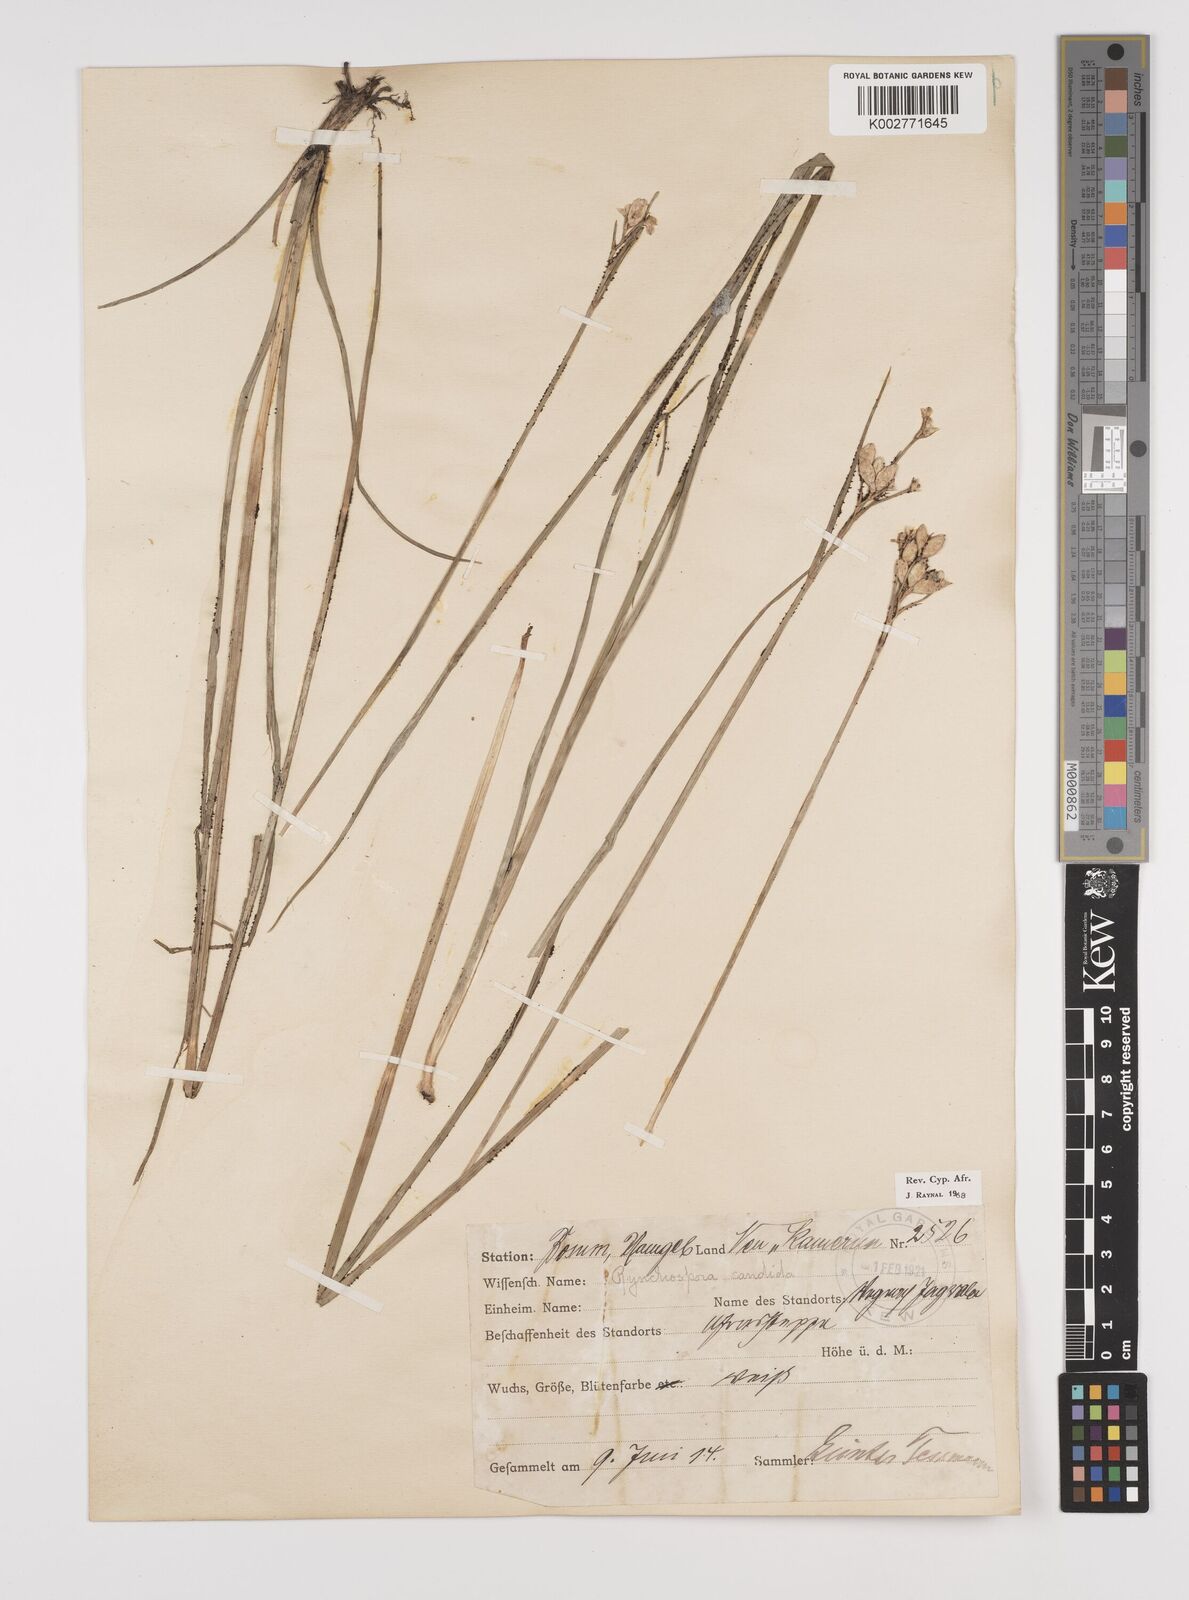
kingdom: Plantae
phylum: Tracheophyta
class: Liliopsida
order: Poales
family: Cyperaceae
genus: Rhynchospora
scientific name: Rhynchospora candida
